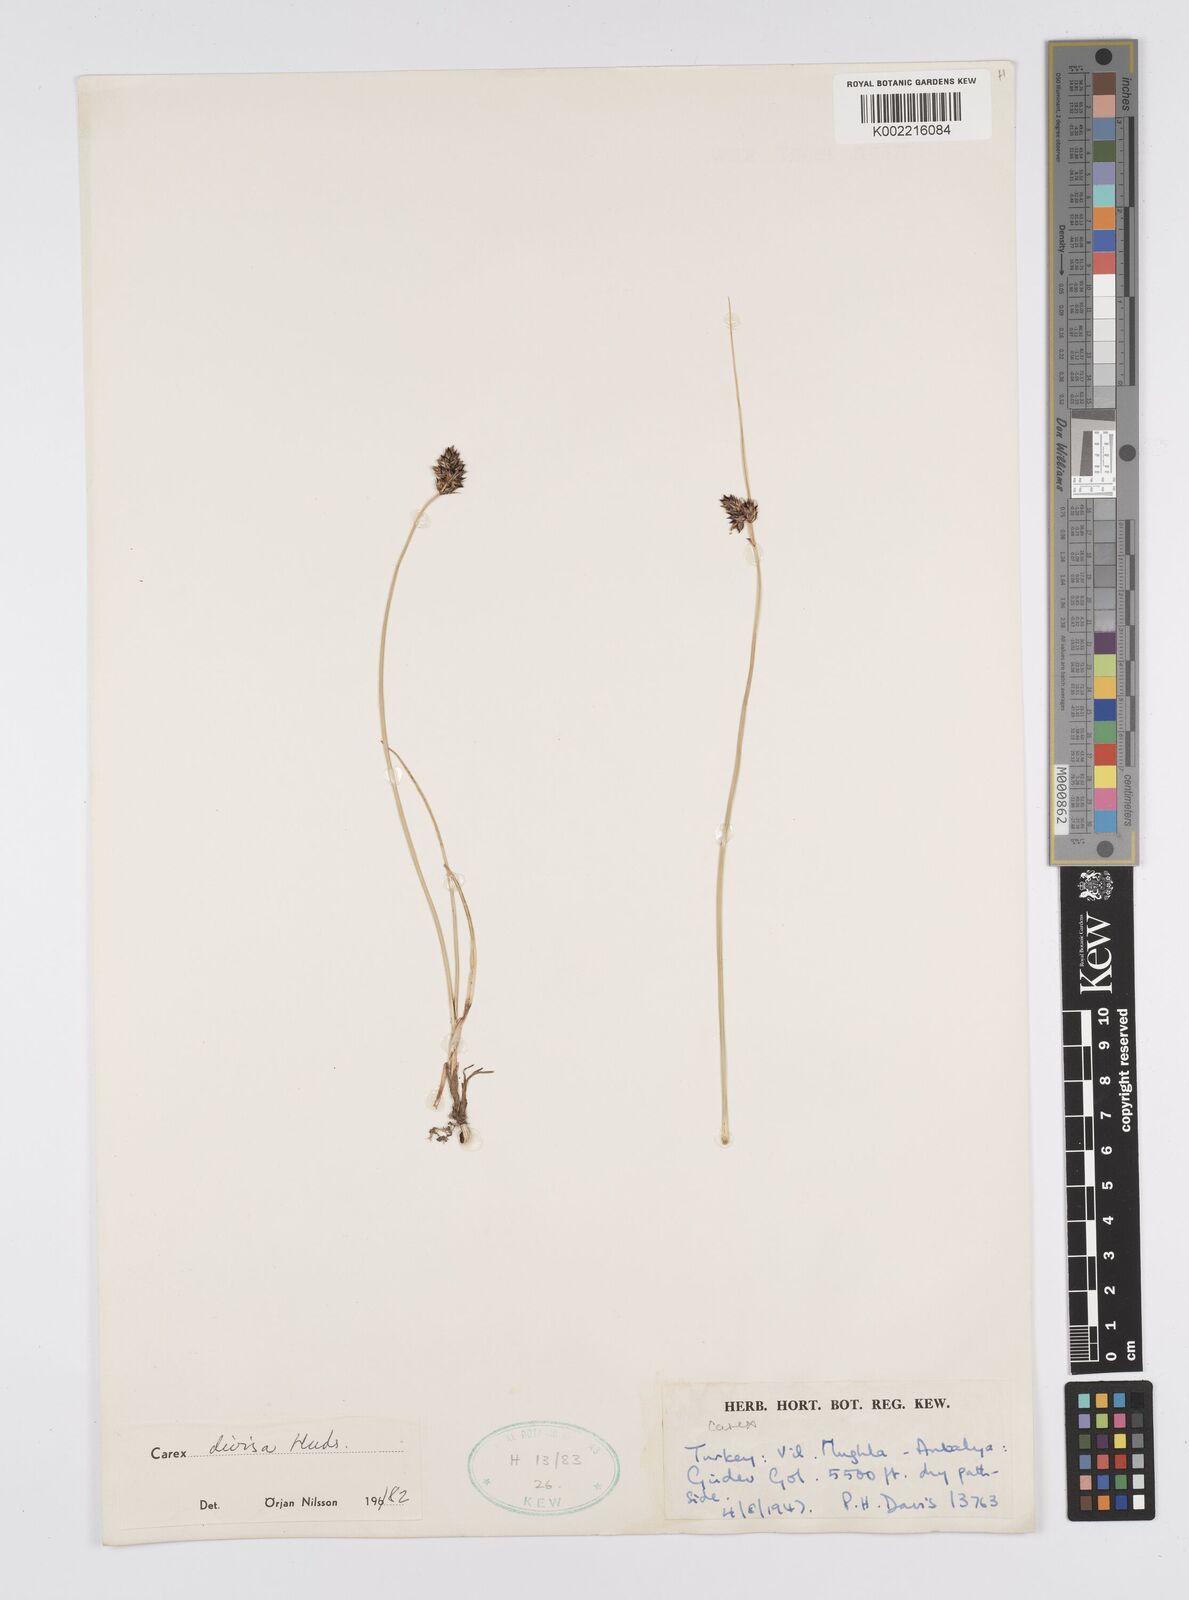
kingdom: Plantae
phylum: Tracheophyta
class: Liliopsida
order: Poales
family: Cyperaceae
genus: Carex
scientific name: Carex divisa
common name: Divided sedge
